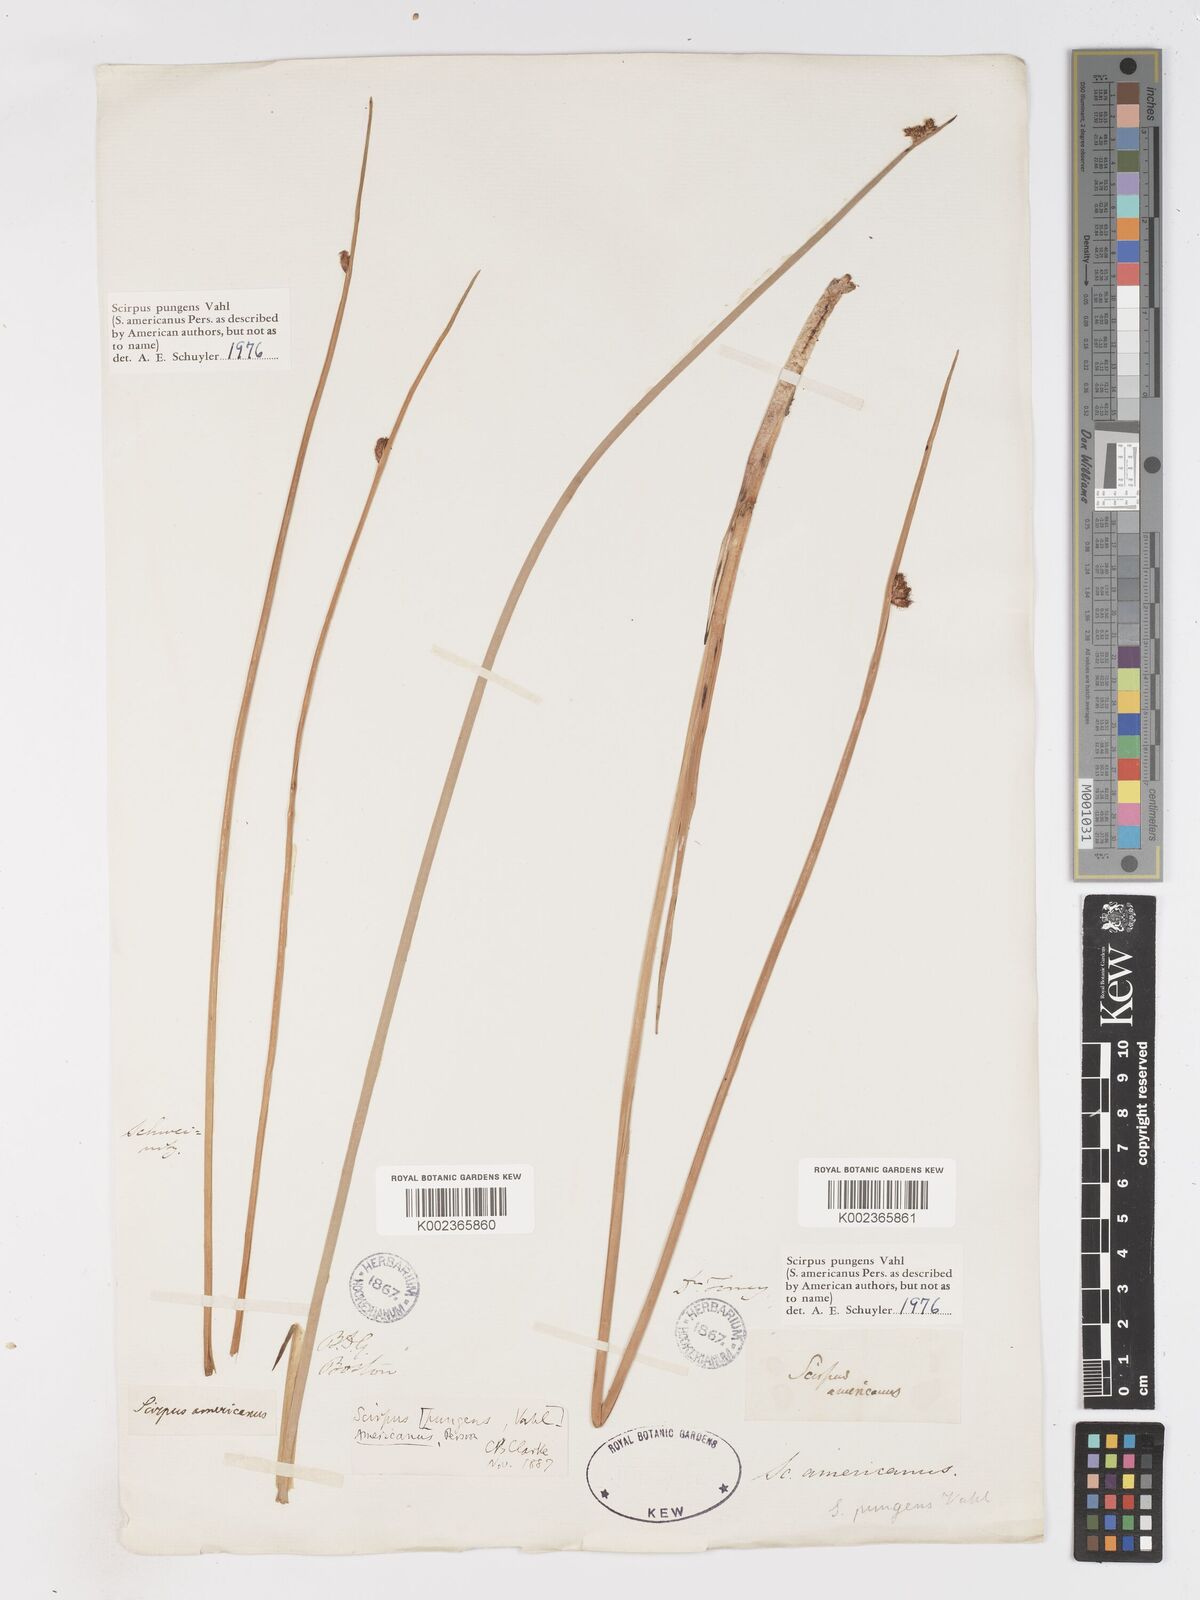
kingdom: Plantae
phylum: Tracheophyta
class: Liliopsida
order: Poales
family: Cyperaceae
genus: Schoenoplectus
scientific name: Schoenoplectus pungens
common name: Sharp club-rush
